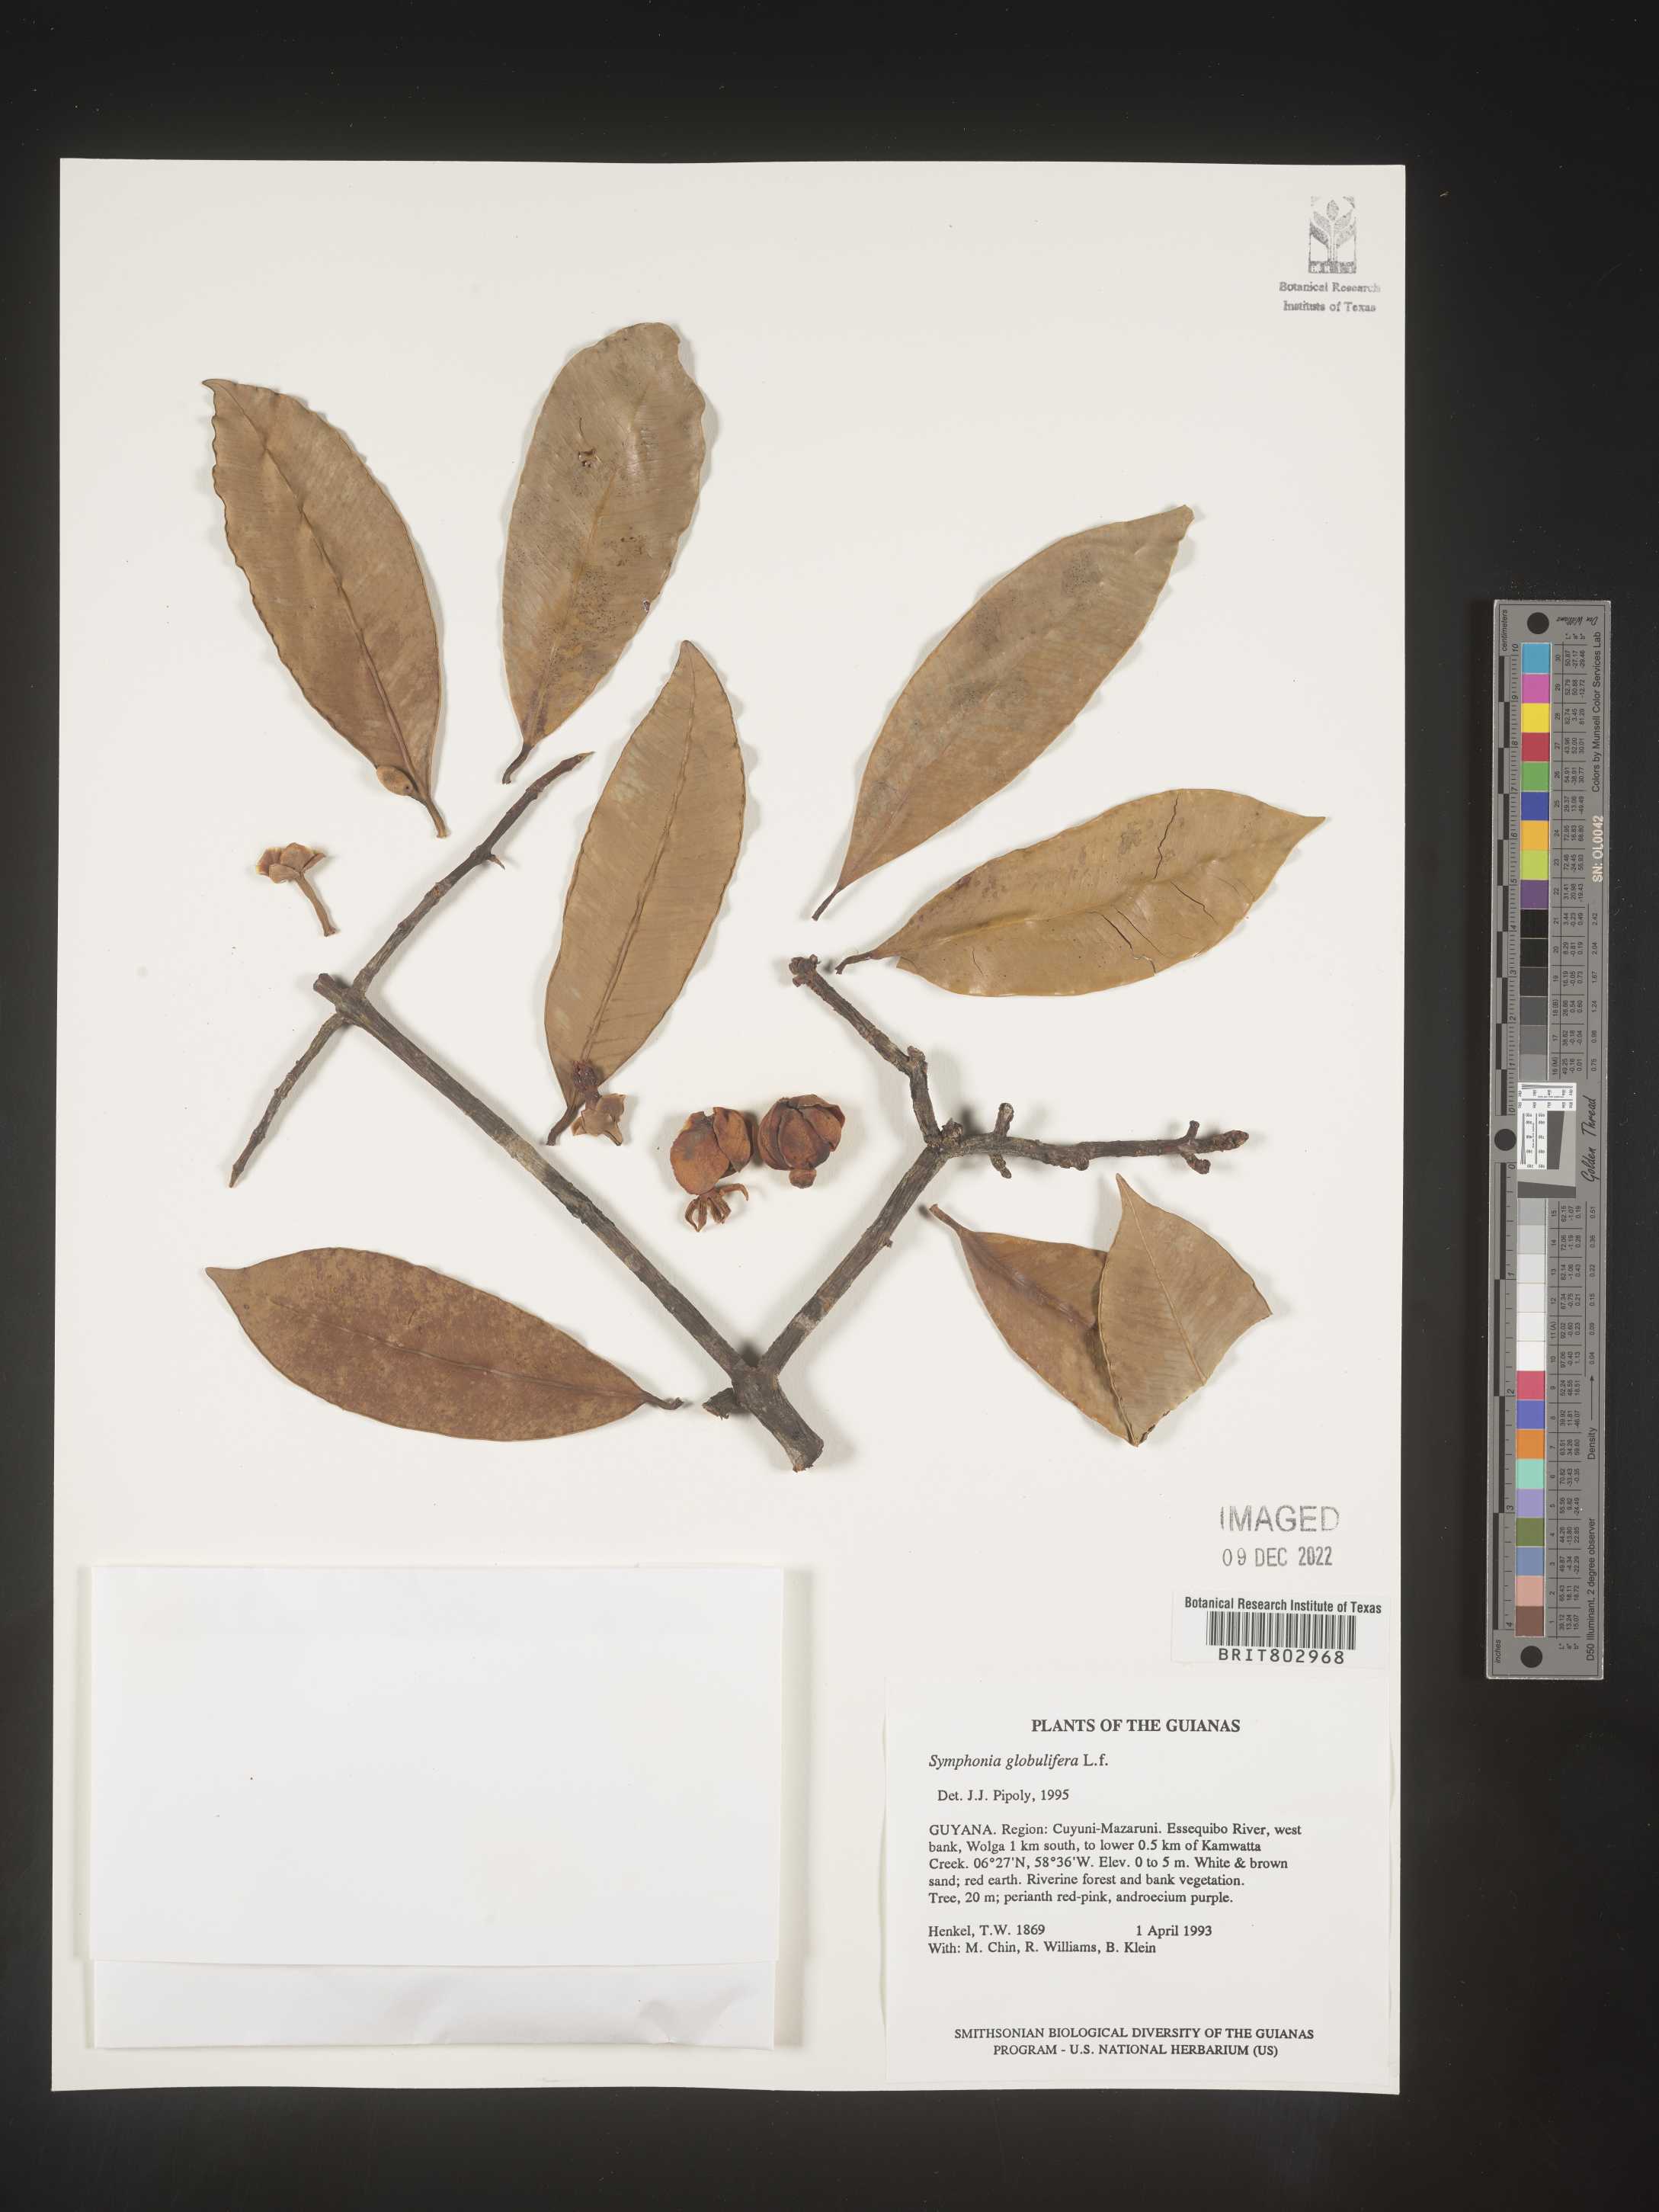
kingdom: Plantae
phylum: Tracheophyta
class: Magnoliopsida
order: Malpighiales
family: Clusiaceae
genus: Symphonia
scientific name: Symphonia
